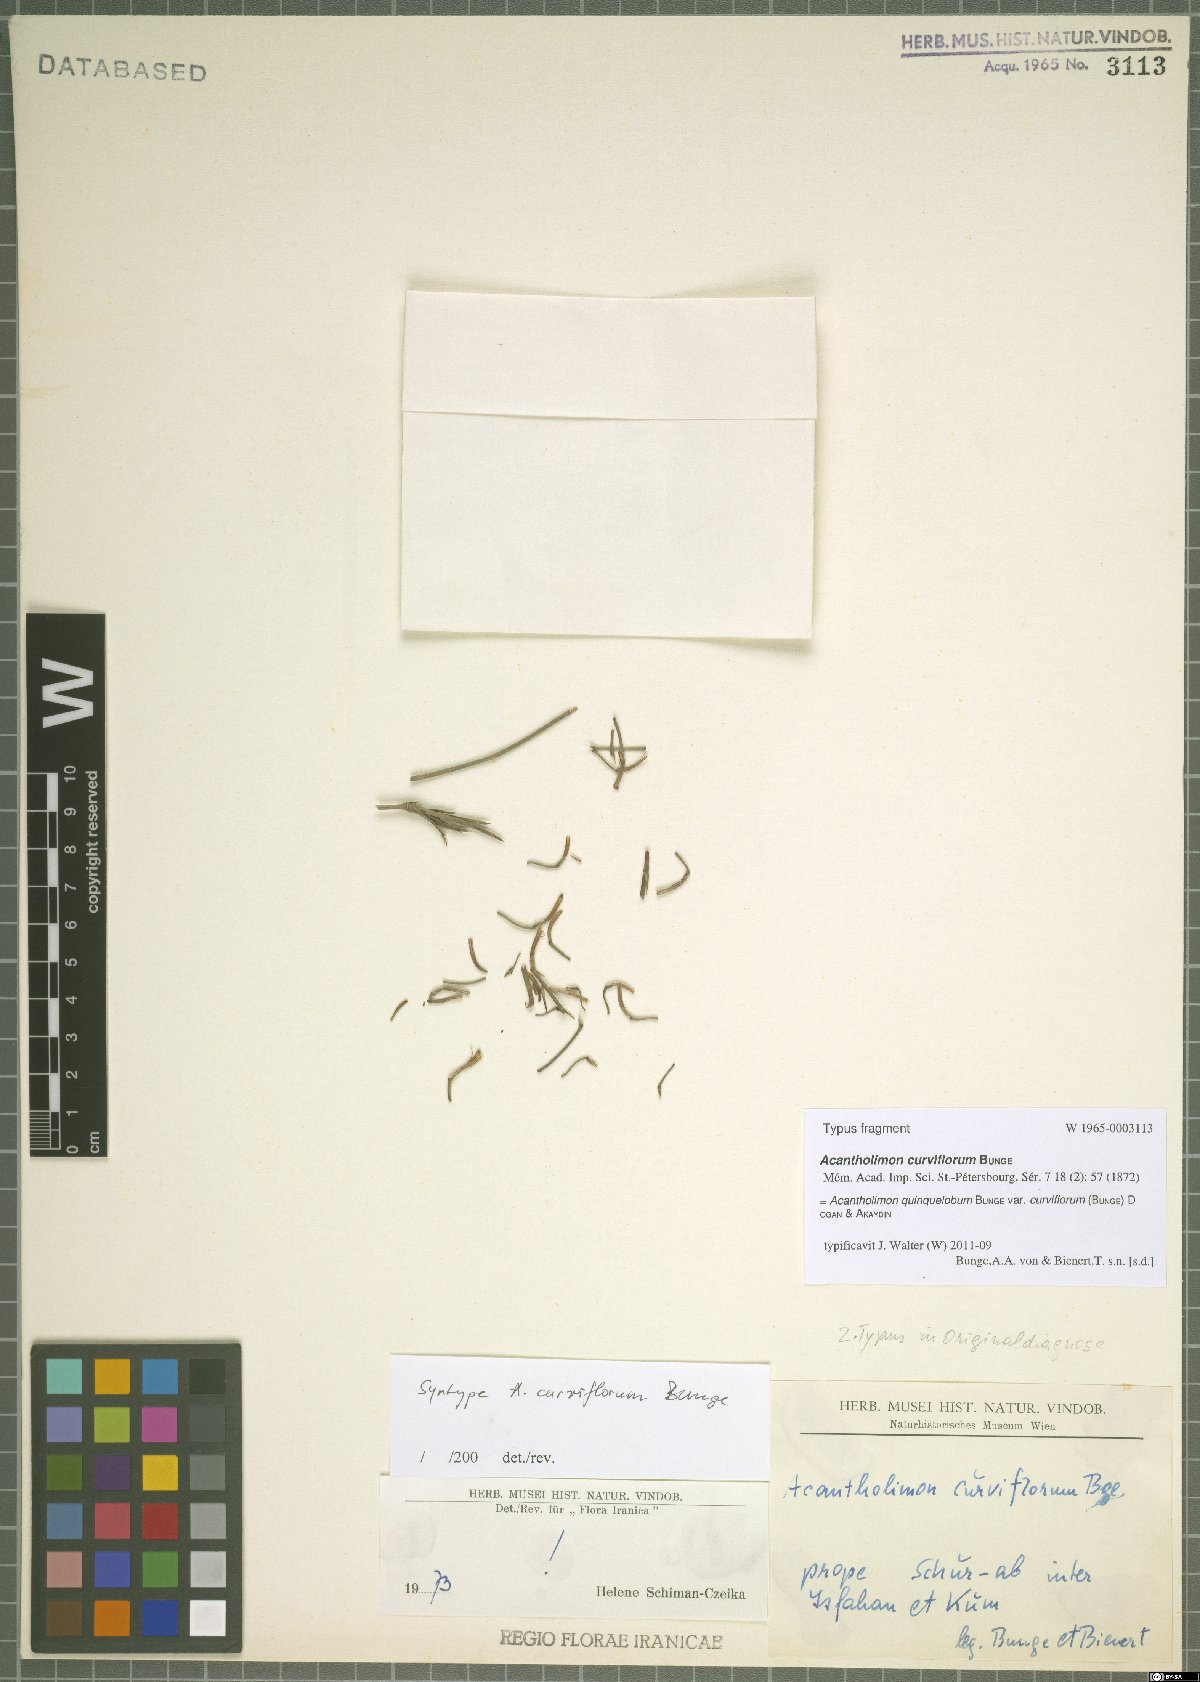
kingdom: Plantae
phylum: Tracheophyta
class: Magnoliopsida
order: Caryophyllales
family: Plumbaginaceae
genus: Acantholimon
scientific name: Acantholimon quinquelobum
